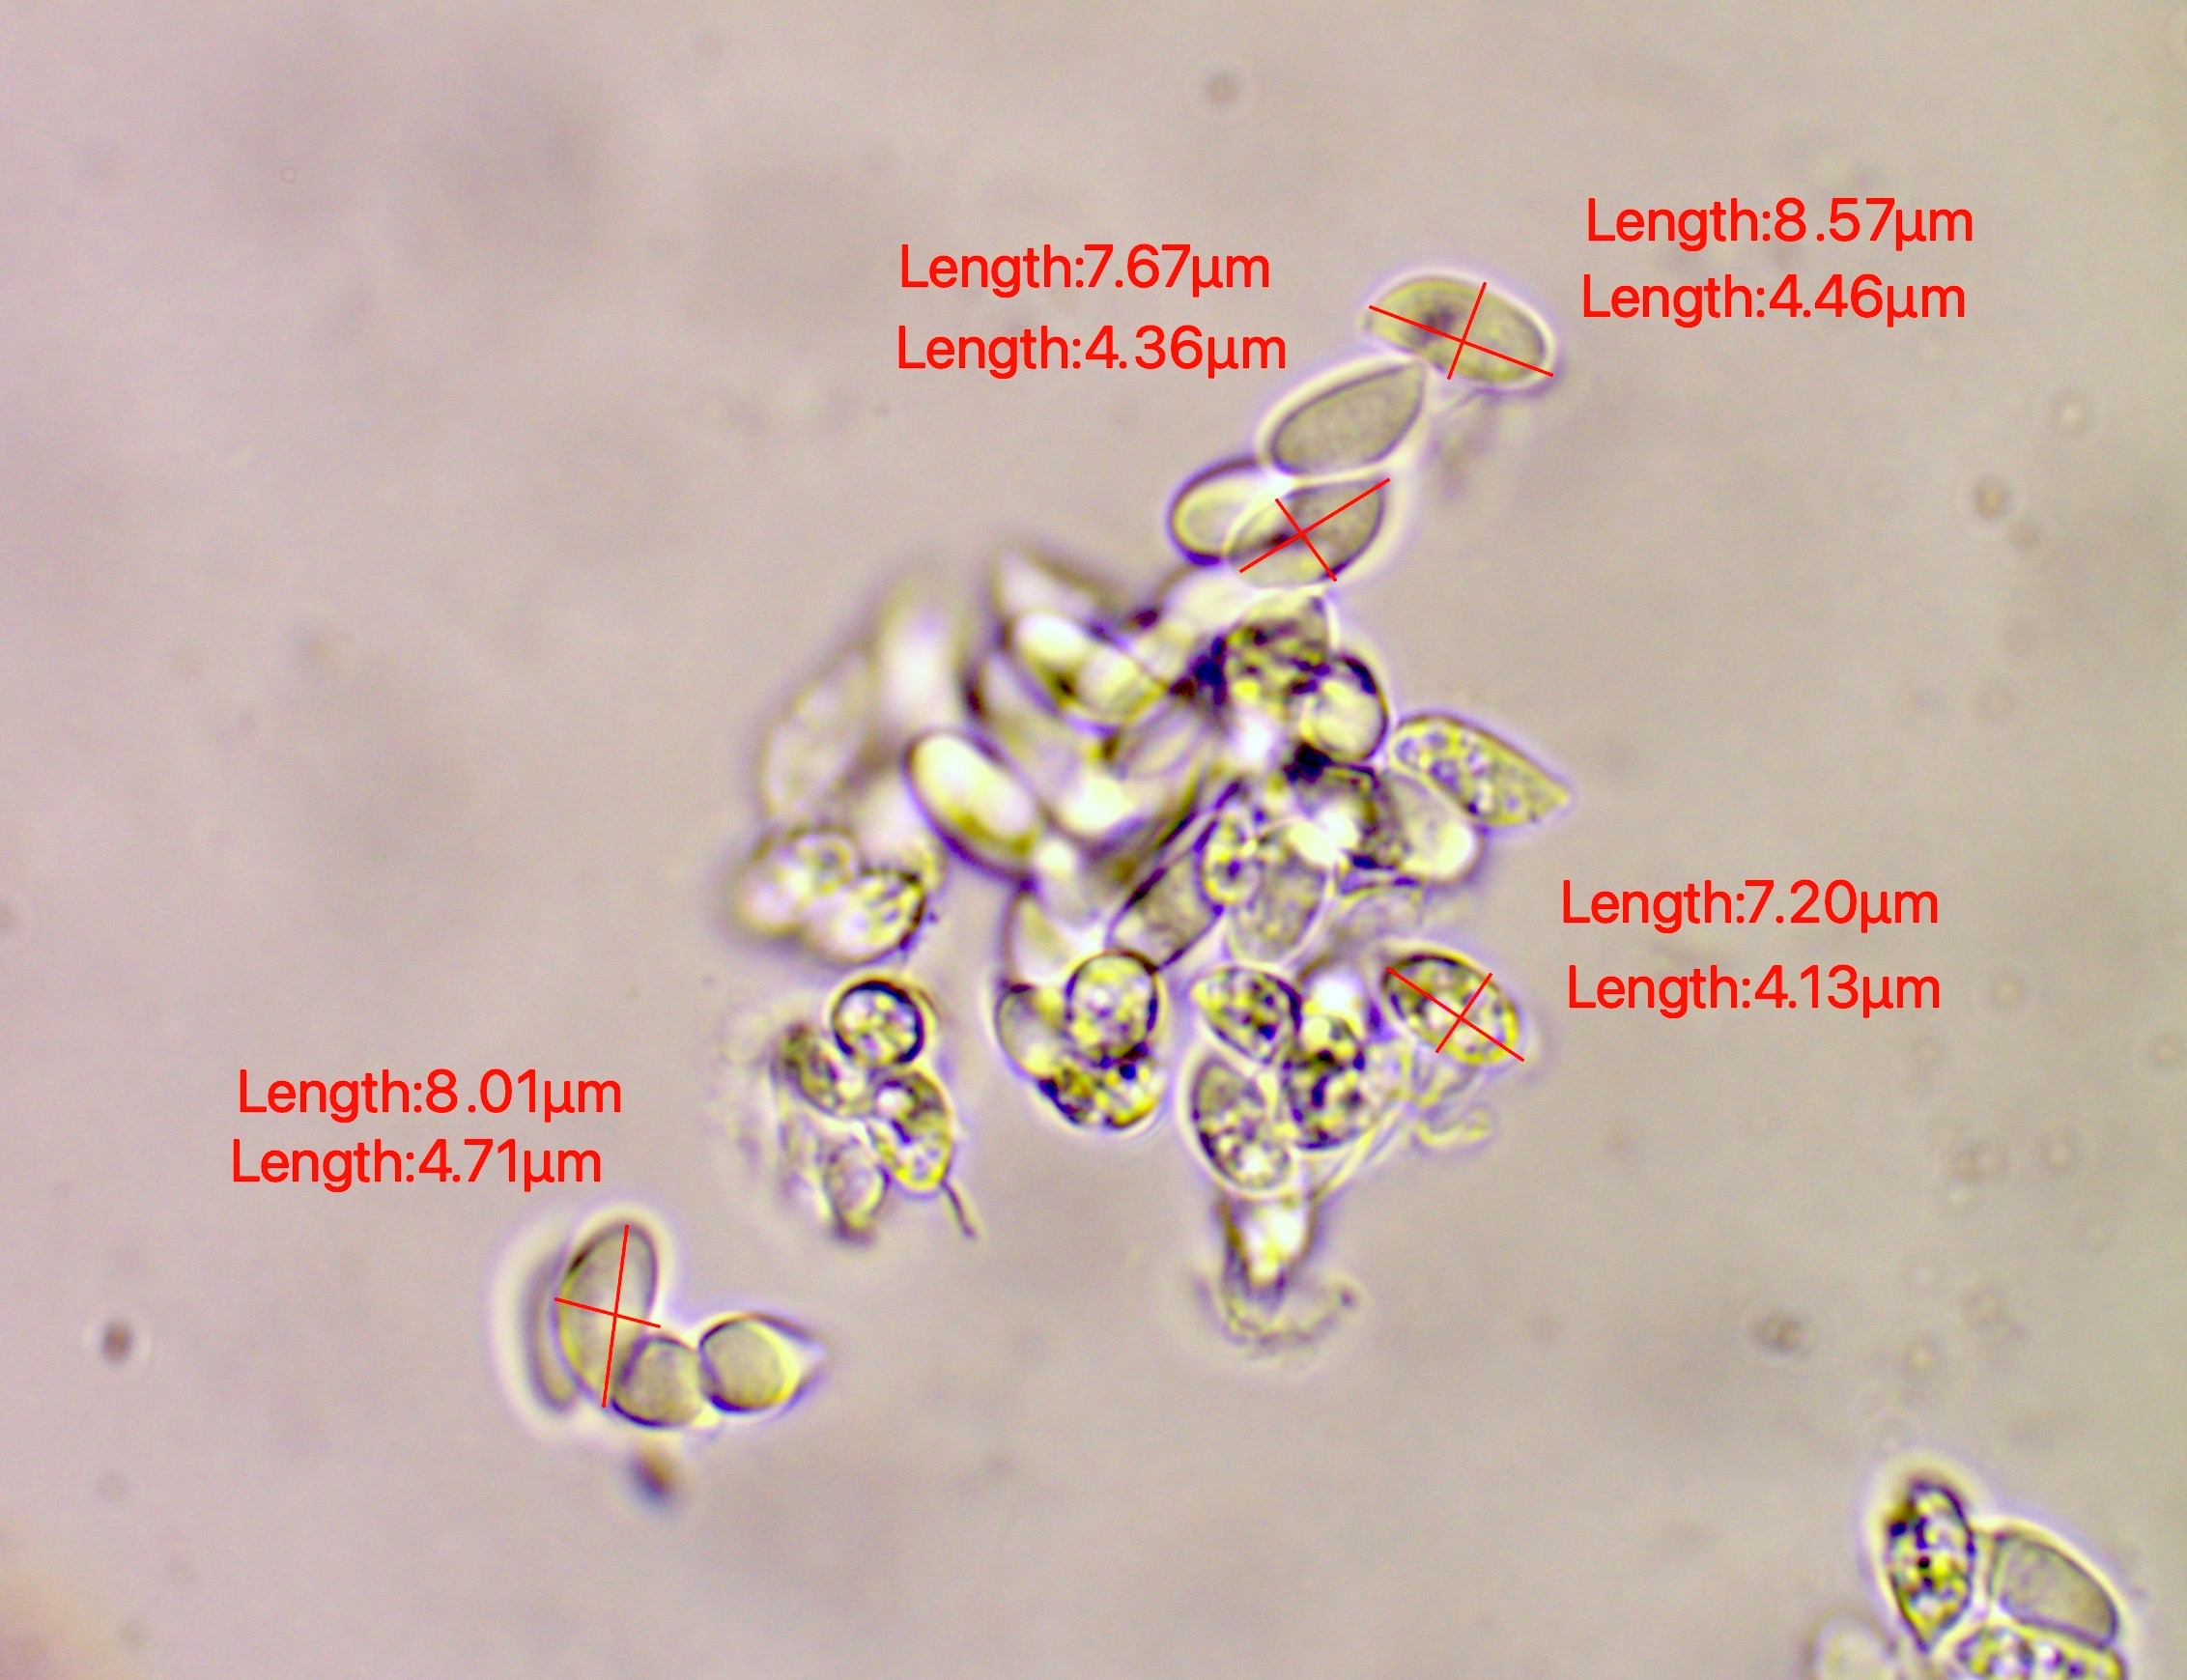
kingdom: Fungi
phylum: Basidiomycota
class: Agaricomycetes
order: Agaricales
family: Omphalotaceae
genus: Gymnopus
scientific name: Gymnopus fuscopurpureus
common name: purpurbrun fladhat
